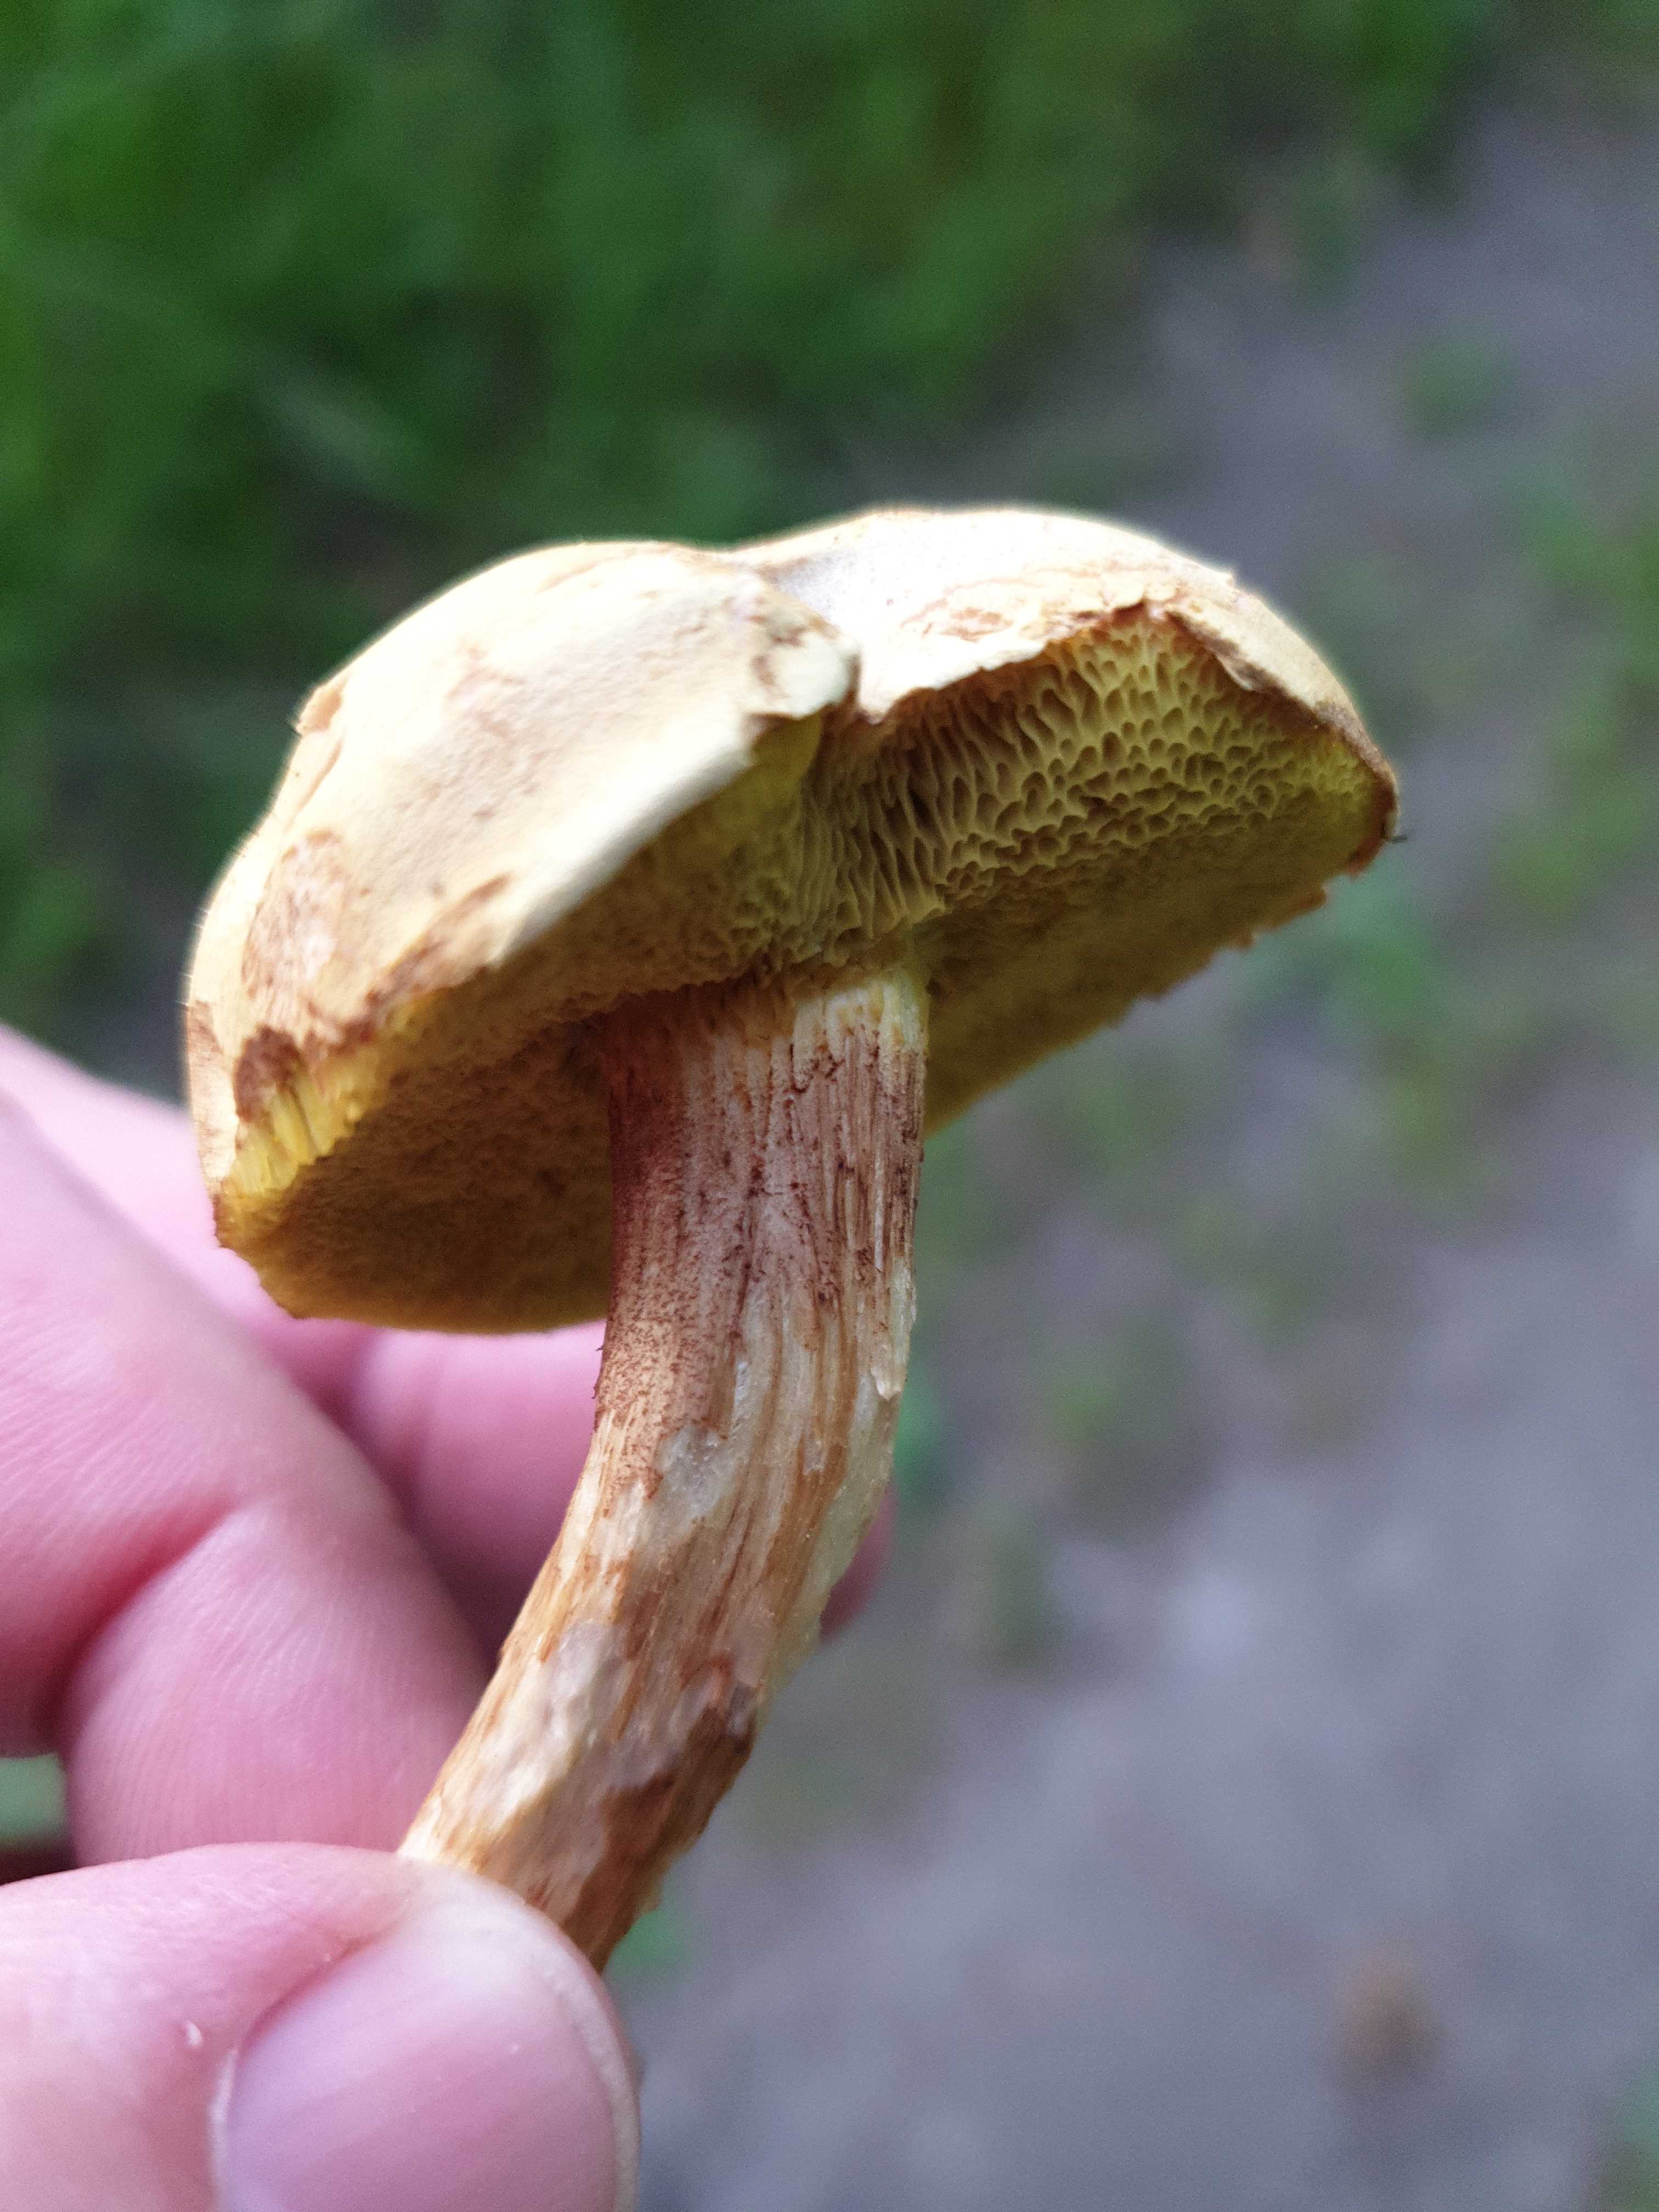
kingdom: Fungi
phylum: Basidiomycota
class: Agaricomycetes
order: Boletales
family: Boletaceae
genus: Xerocomus
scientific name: Xerocomus
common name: filtrørhat
